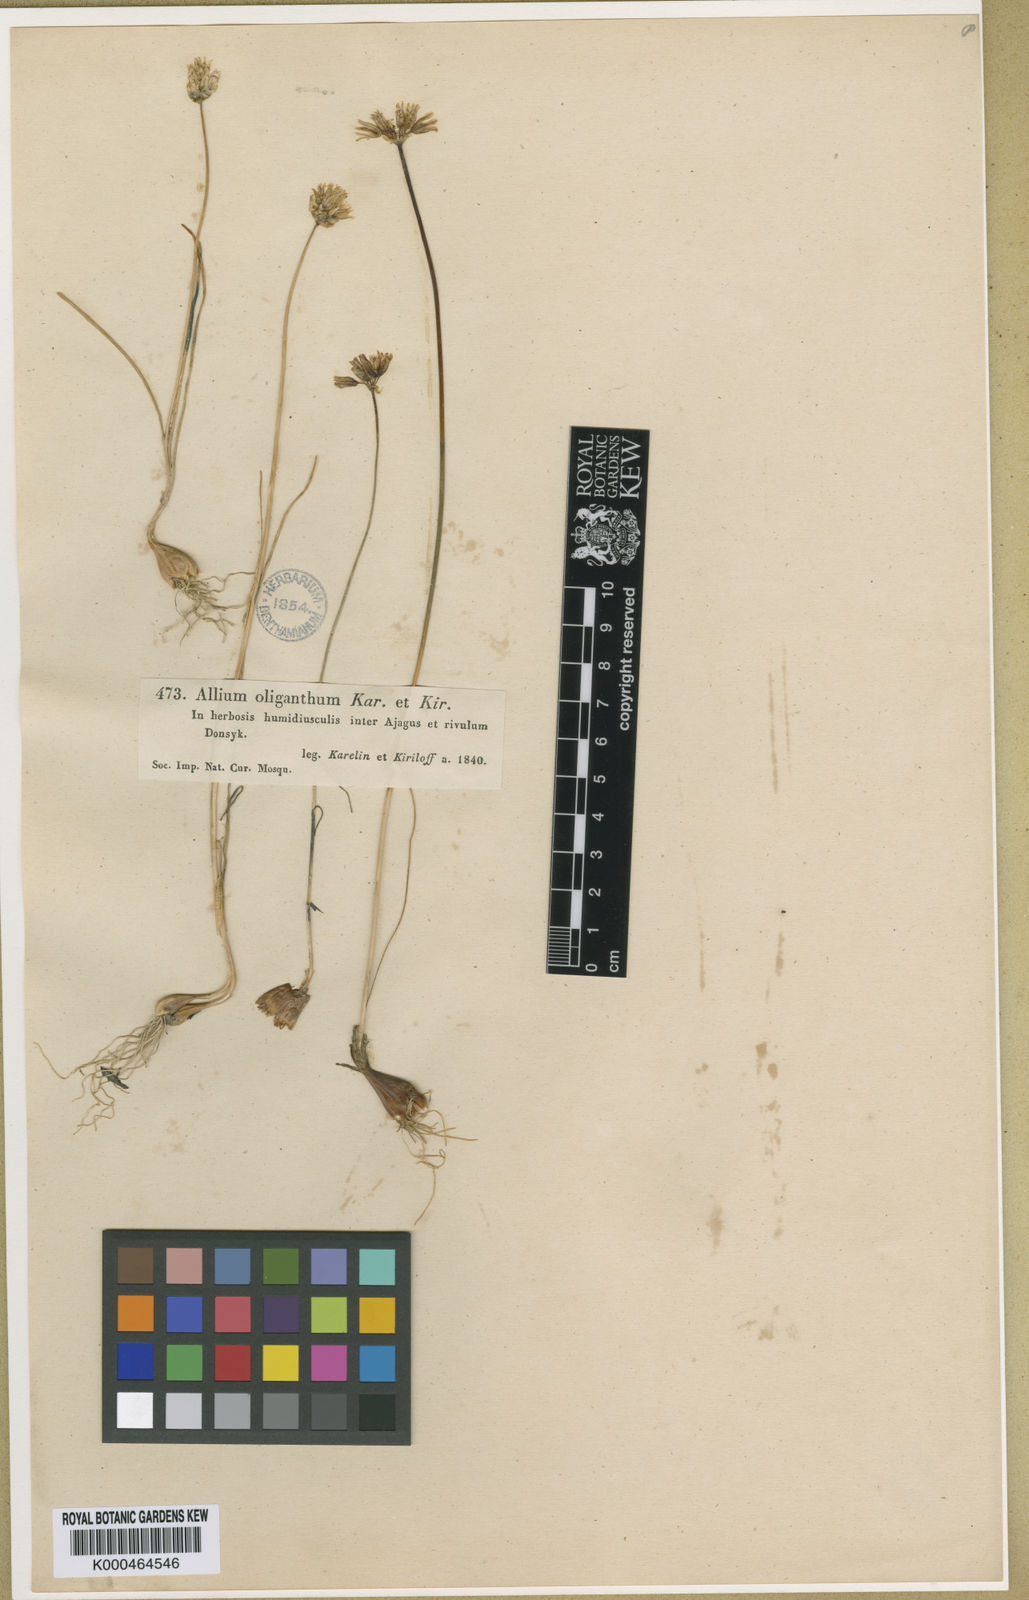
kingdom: Plantae
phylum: Tracheophyta
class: Liliopsida
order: Asparagales
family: Amaryllidaceae
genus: Allium
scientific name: Allium oliganthum
